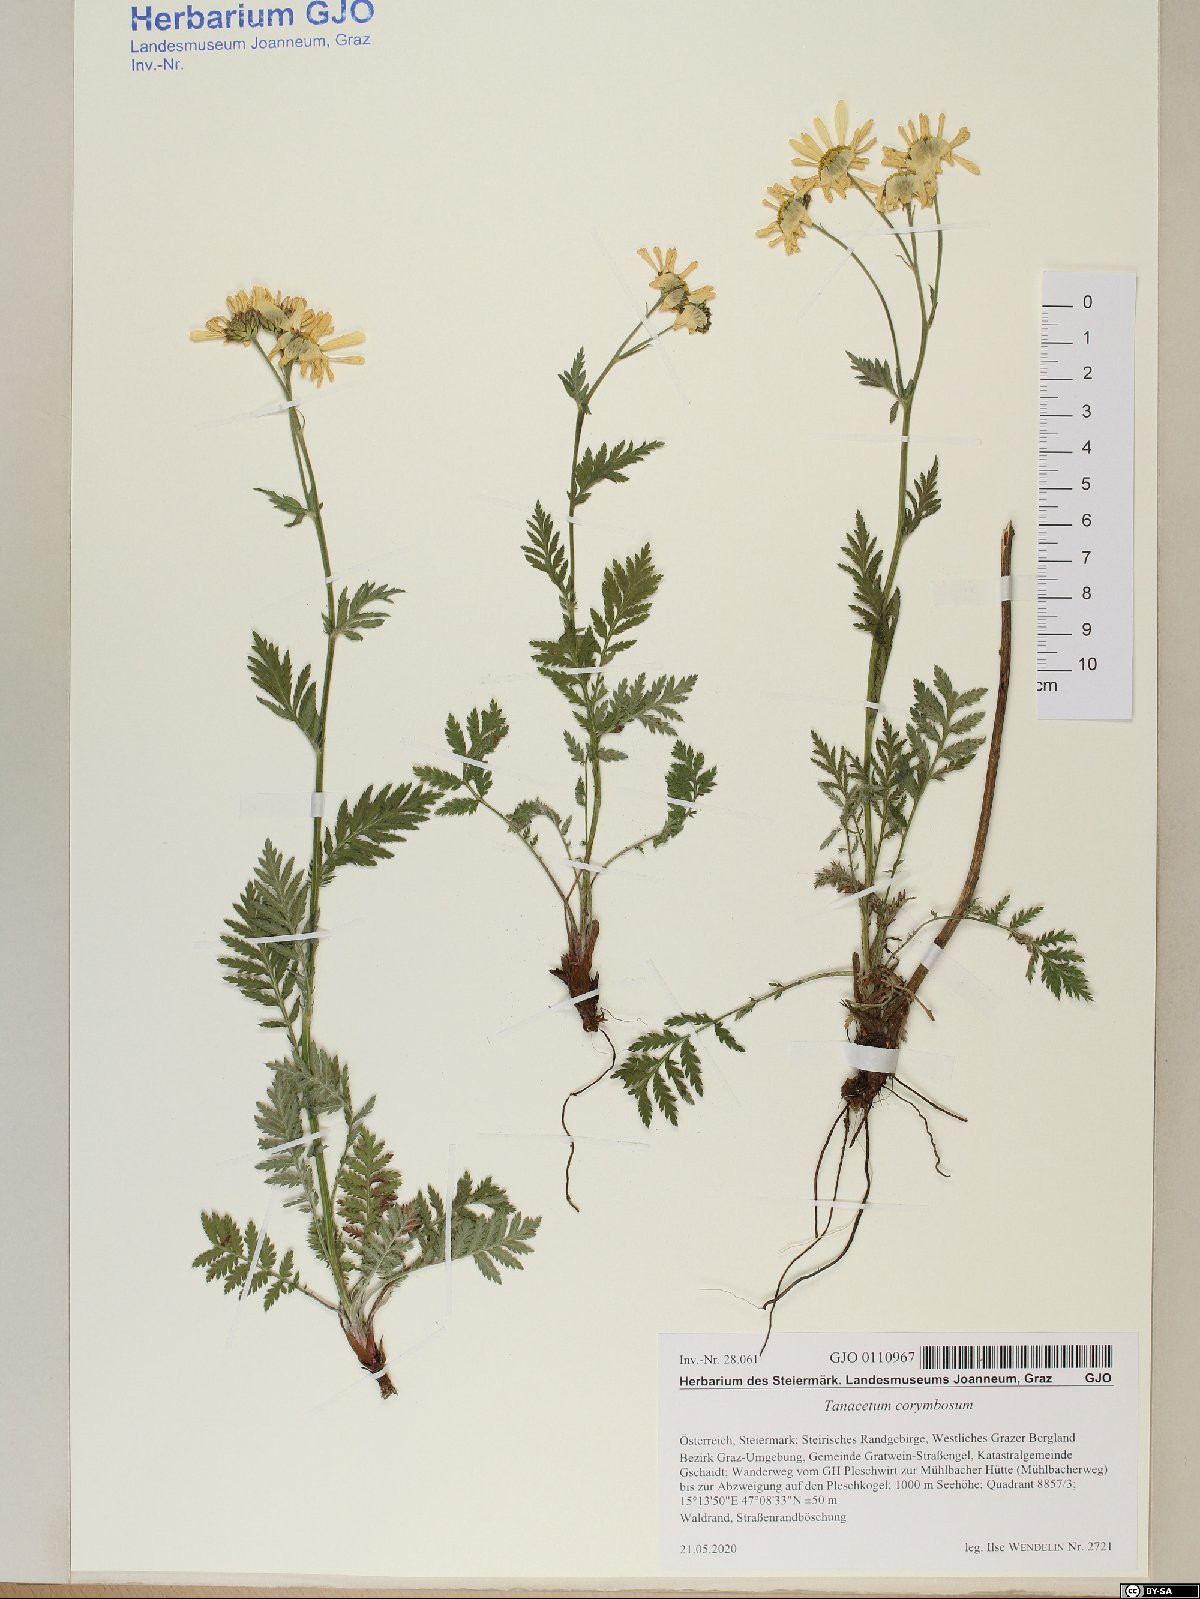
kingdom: Plantae
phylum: Tracheophyta
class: Magnoliopsida
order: Asterales
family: Asteraceae
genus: Tanacetum
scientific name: Tanacetum corymbosum
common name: Scentless feverfew
